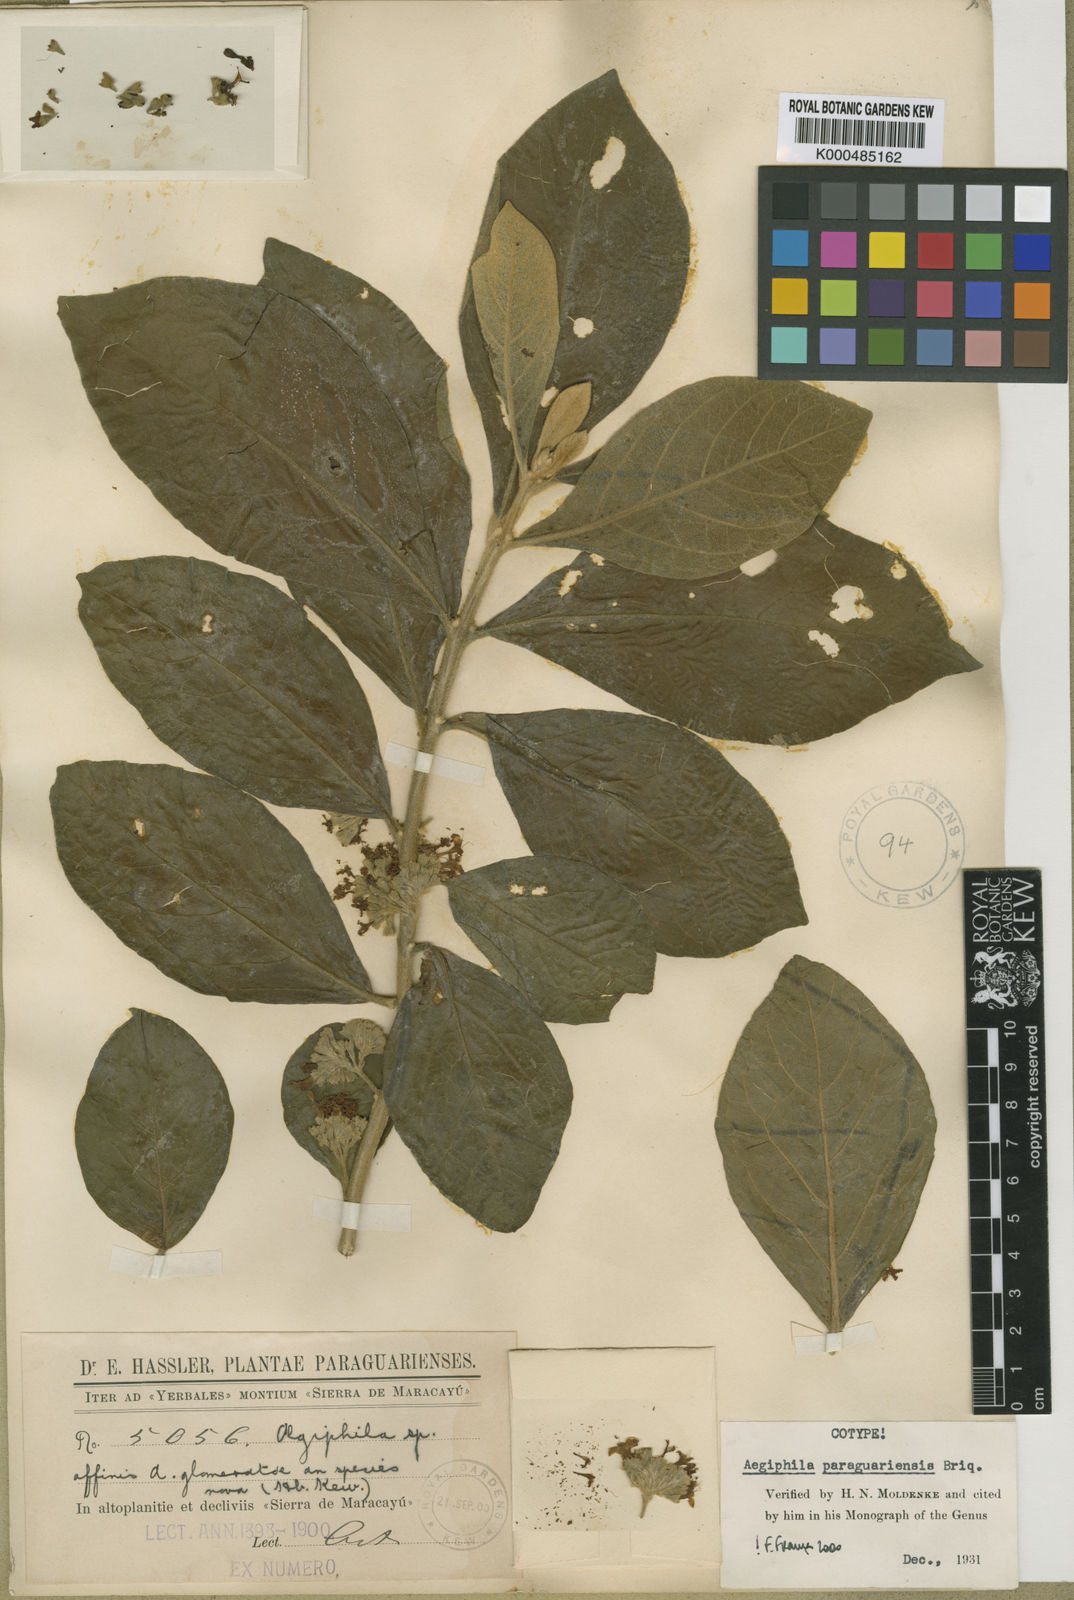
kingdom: Plantae
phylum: Tracheophyta
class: Magnoliopsida
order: Lamiales
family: Lamiaceae
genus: Aegiphila
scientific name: Aegiphila paraguariensis
